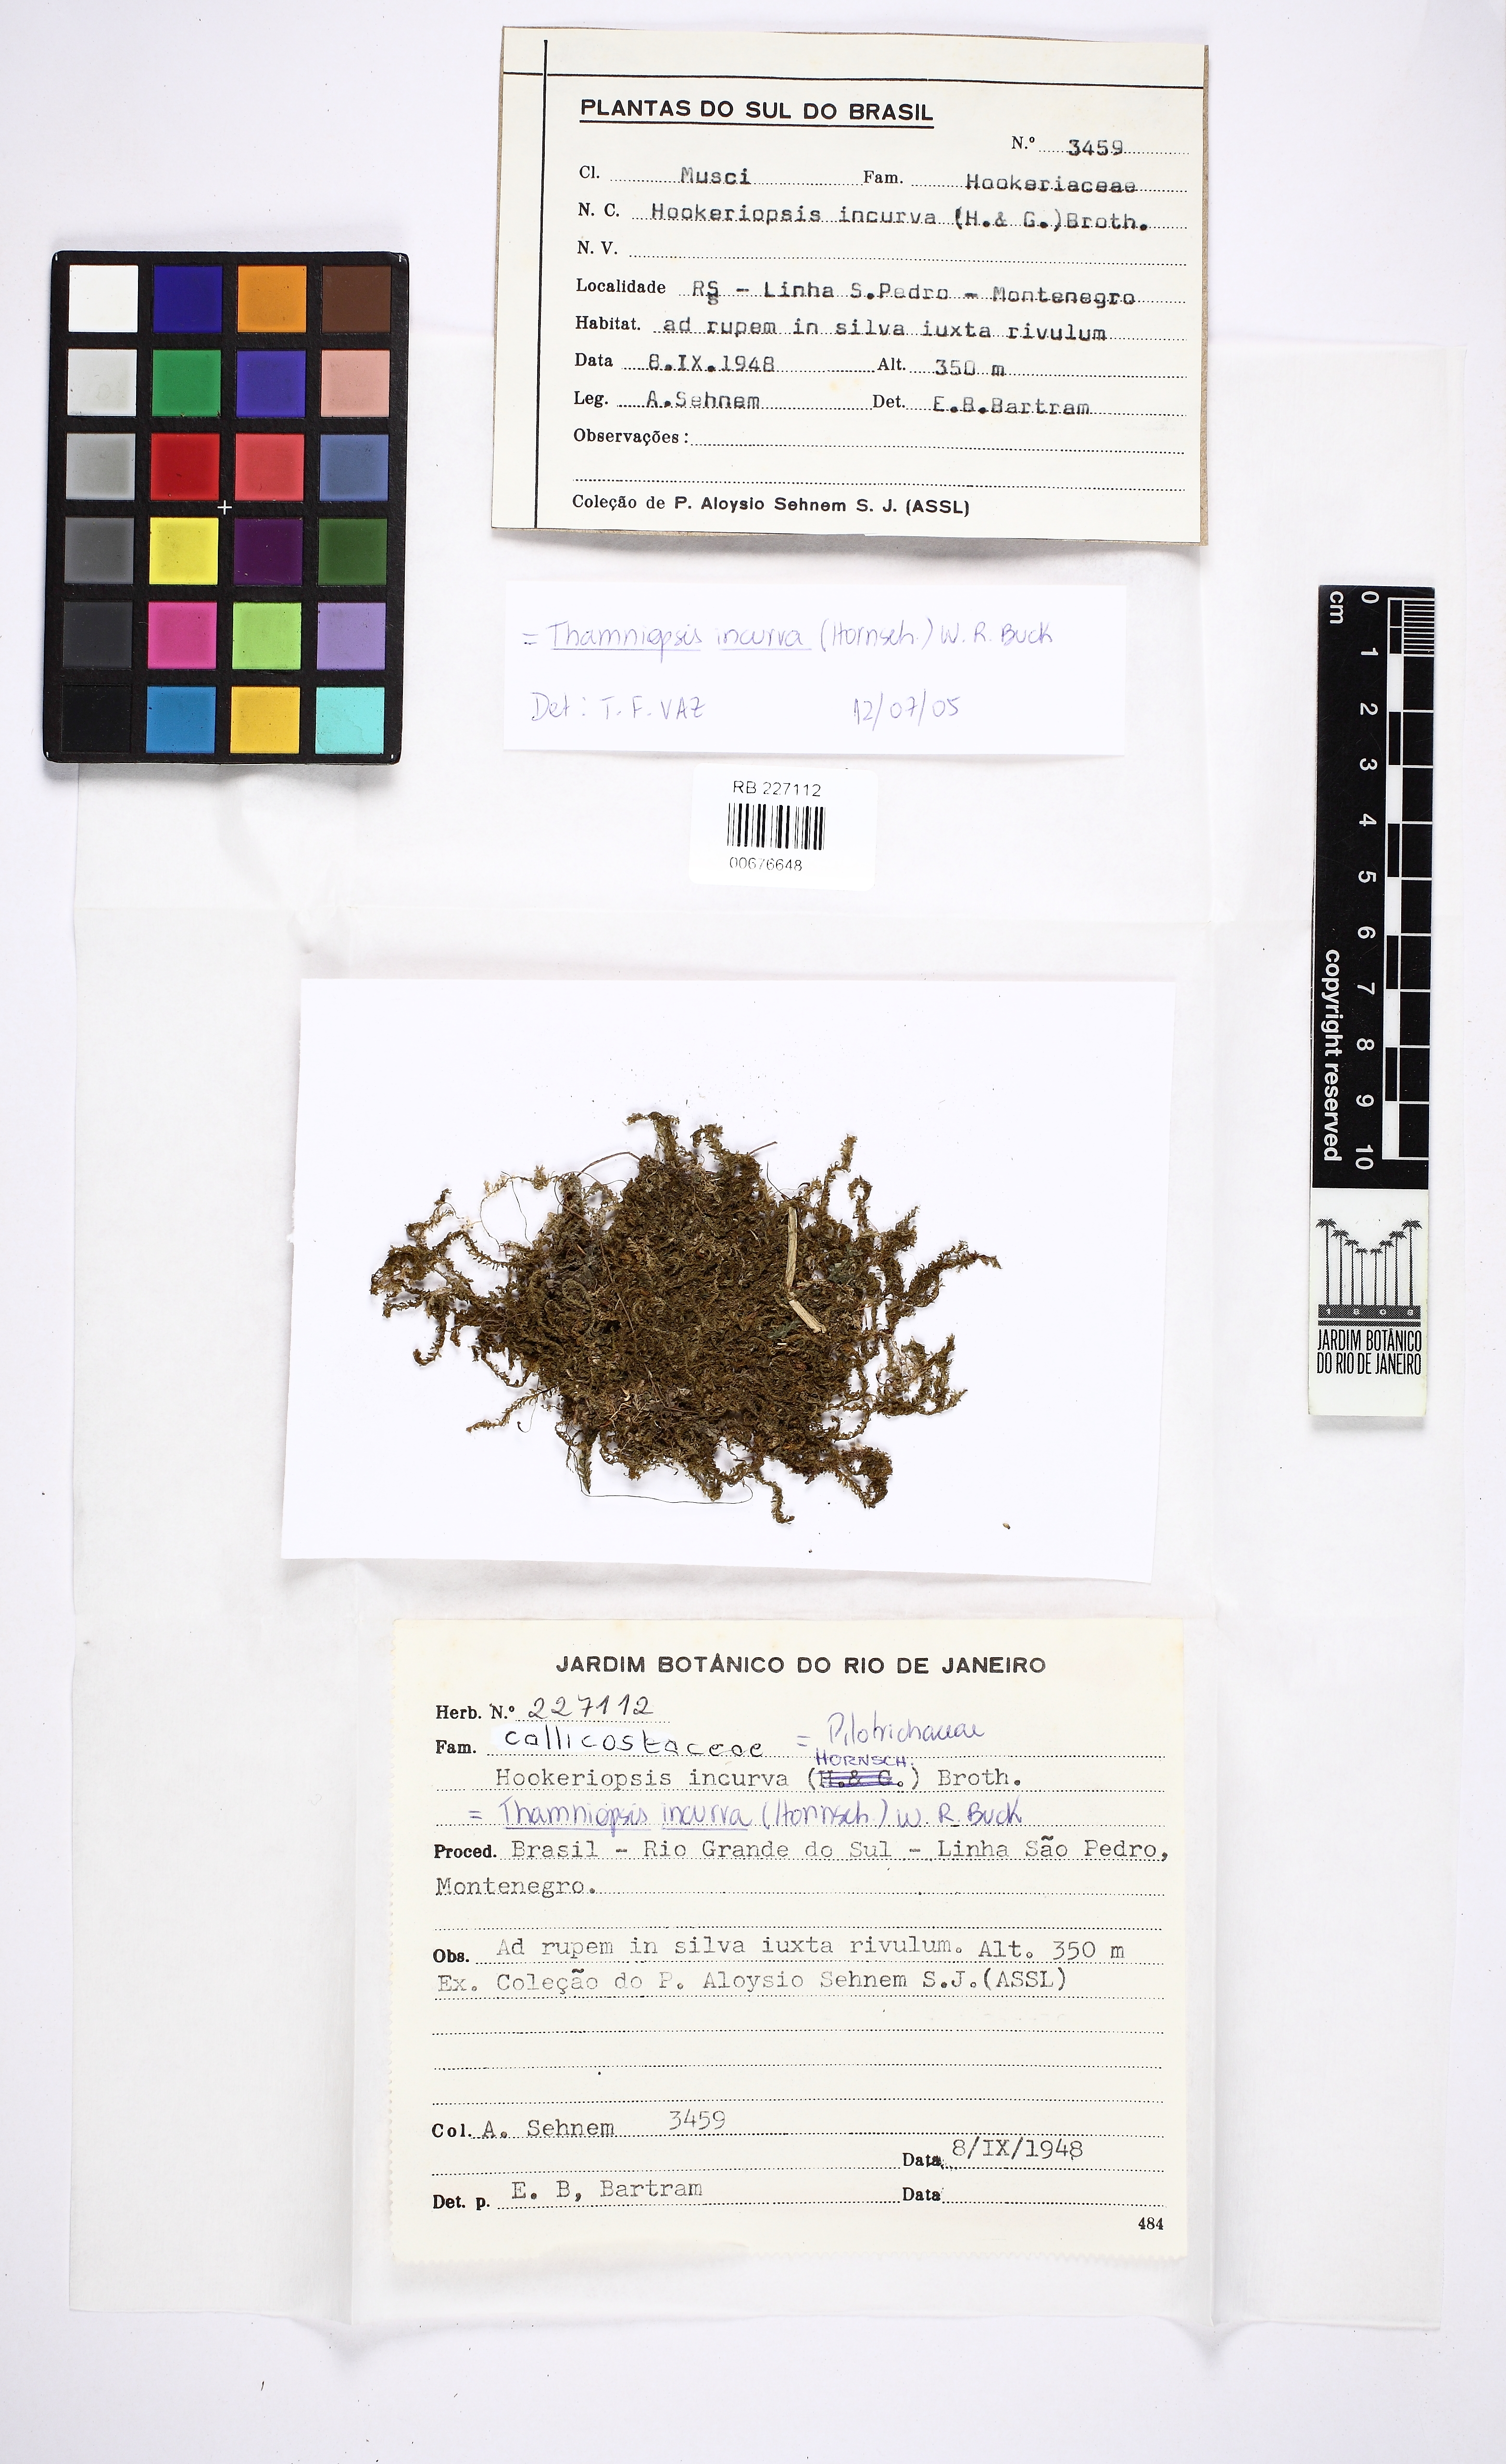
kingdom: Plantae
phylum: Bryophyta
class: Bryopsida
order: Hookeriales
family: Pilotrichaceae
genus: Thamniopsis
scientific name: Thamniopsis incurva
